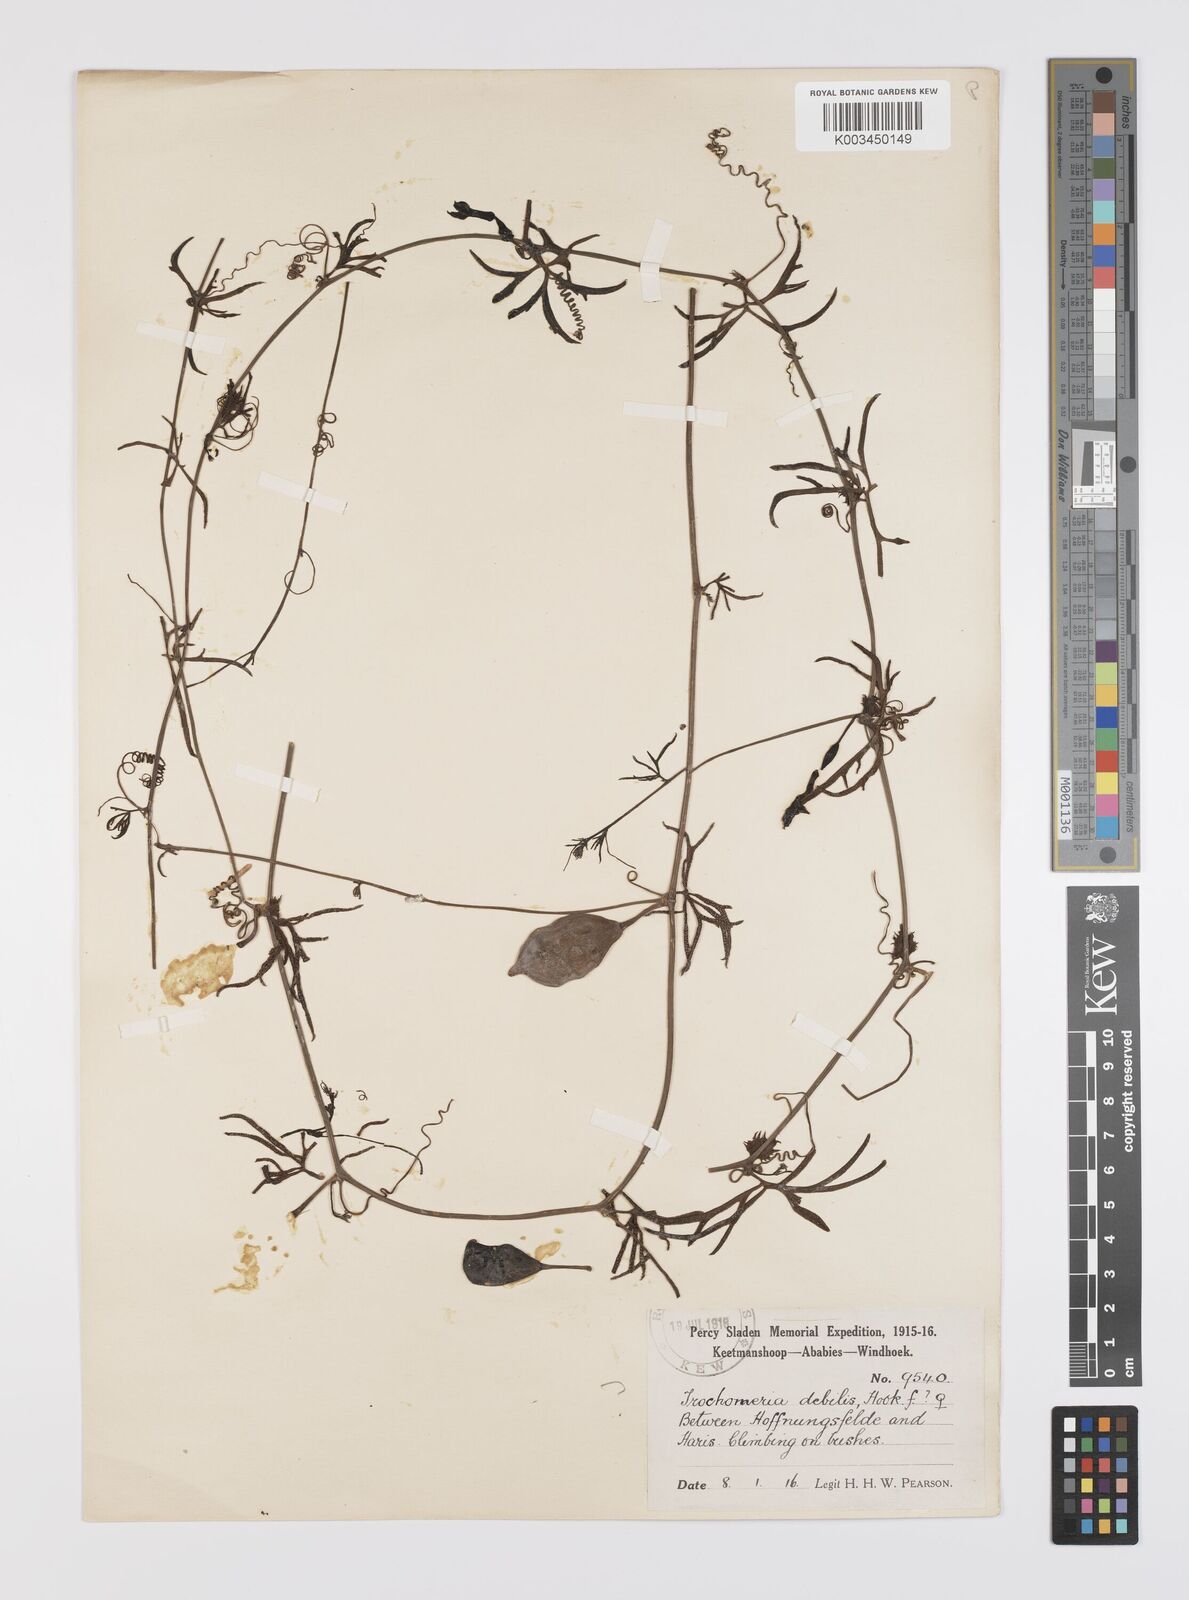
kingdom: Plantae
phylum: Tracheophyta
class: Magnoliopsida
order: Cucurbitales
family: Cucurbitaceae
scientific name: Cucurbitaceae
